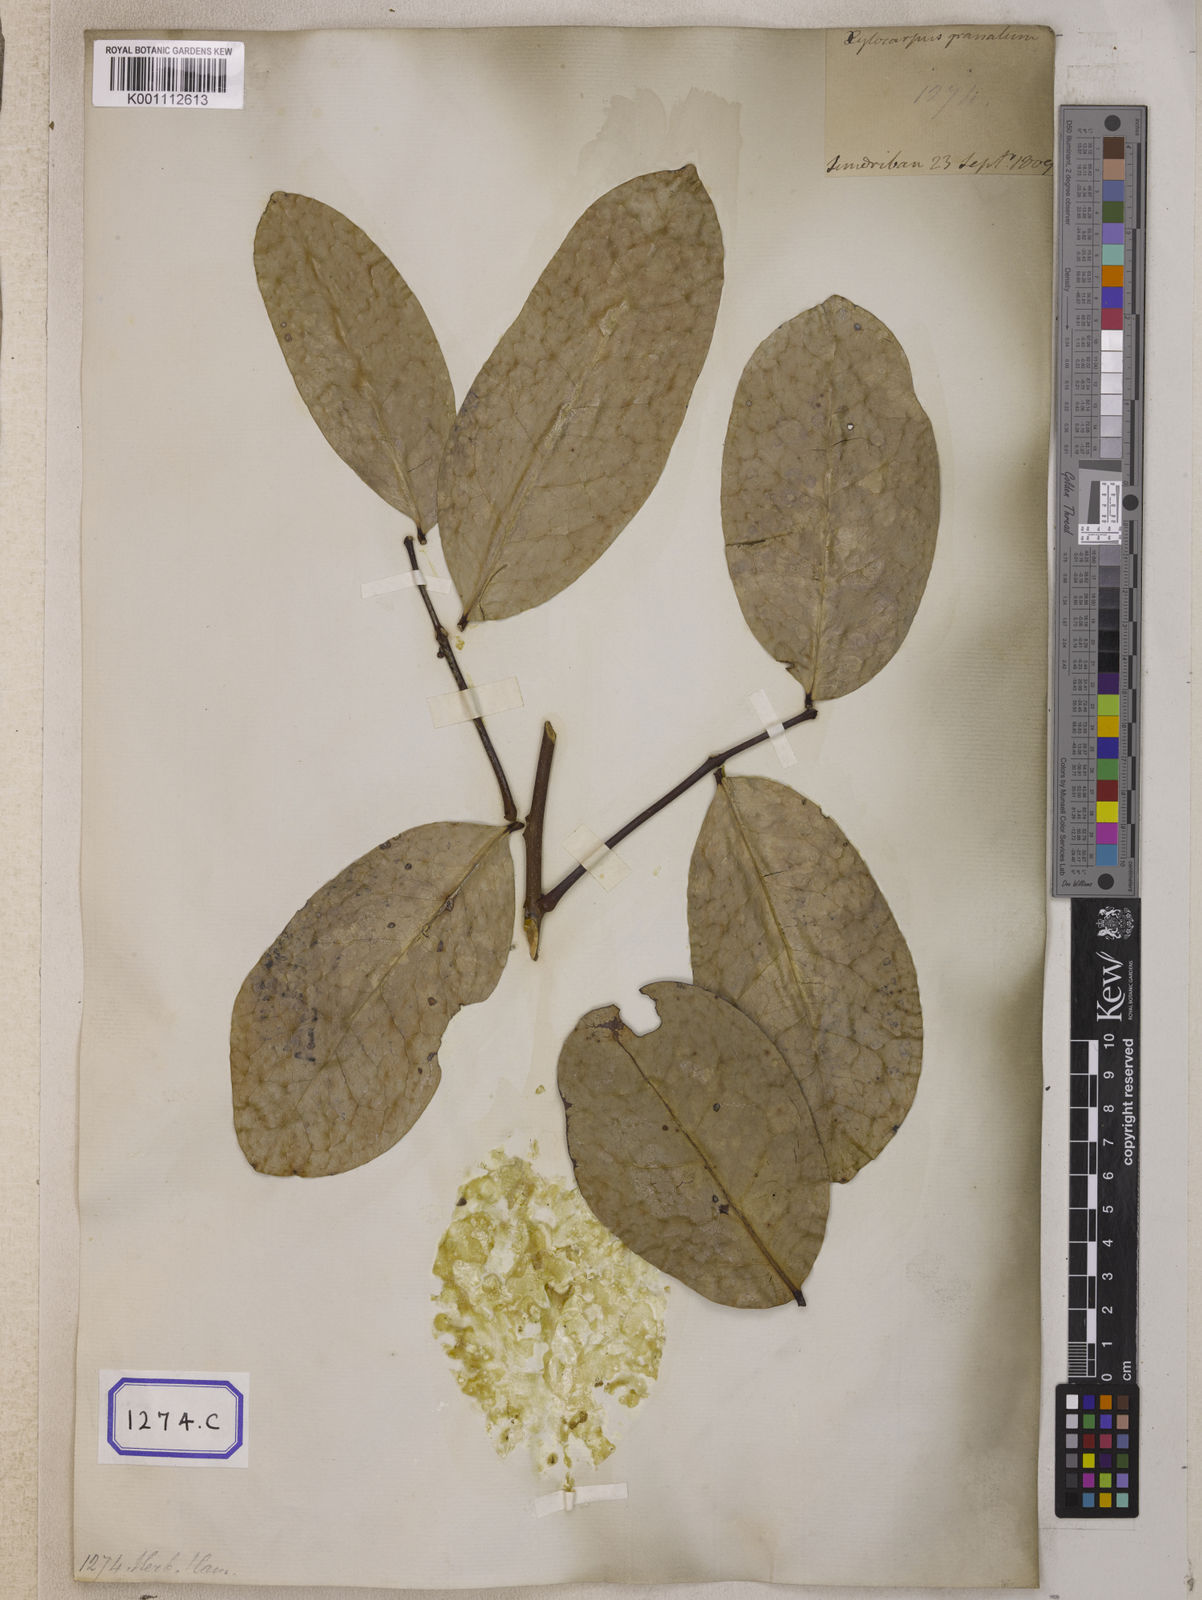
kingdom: Plantae
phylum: Tracheophyta
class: Magnoliopsida
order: Sapindales
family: Meliaceae
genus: Xylocarpus
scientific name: Xylocarpus moluccensis
